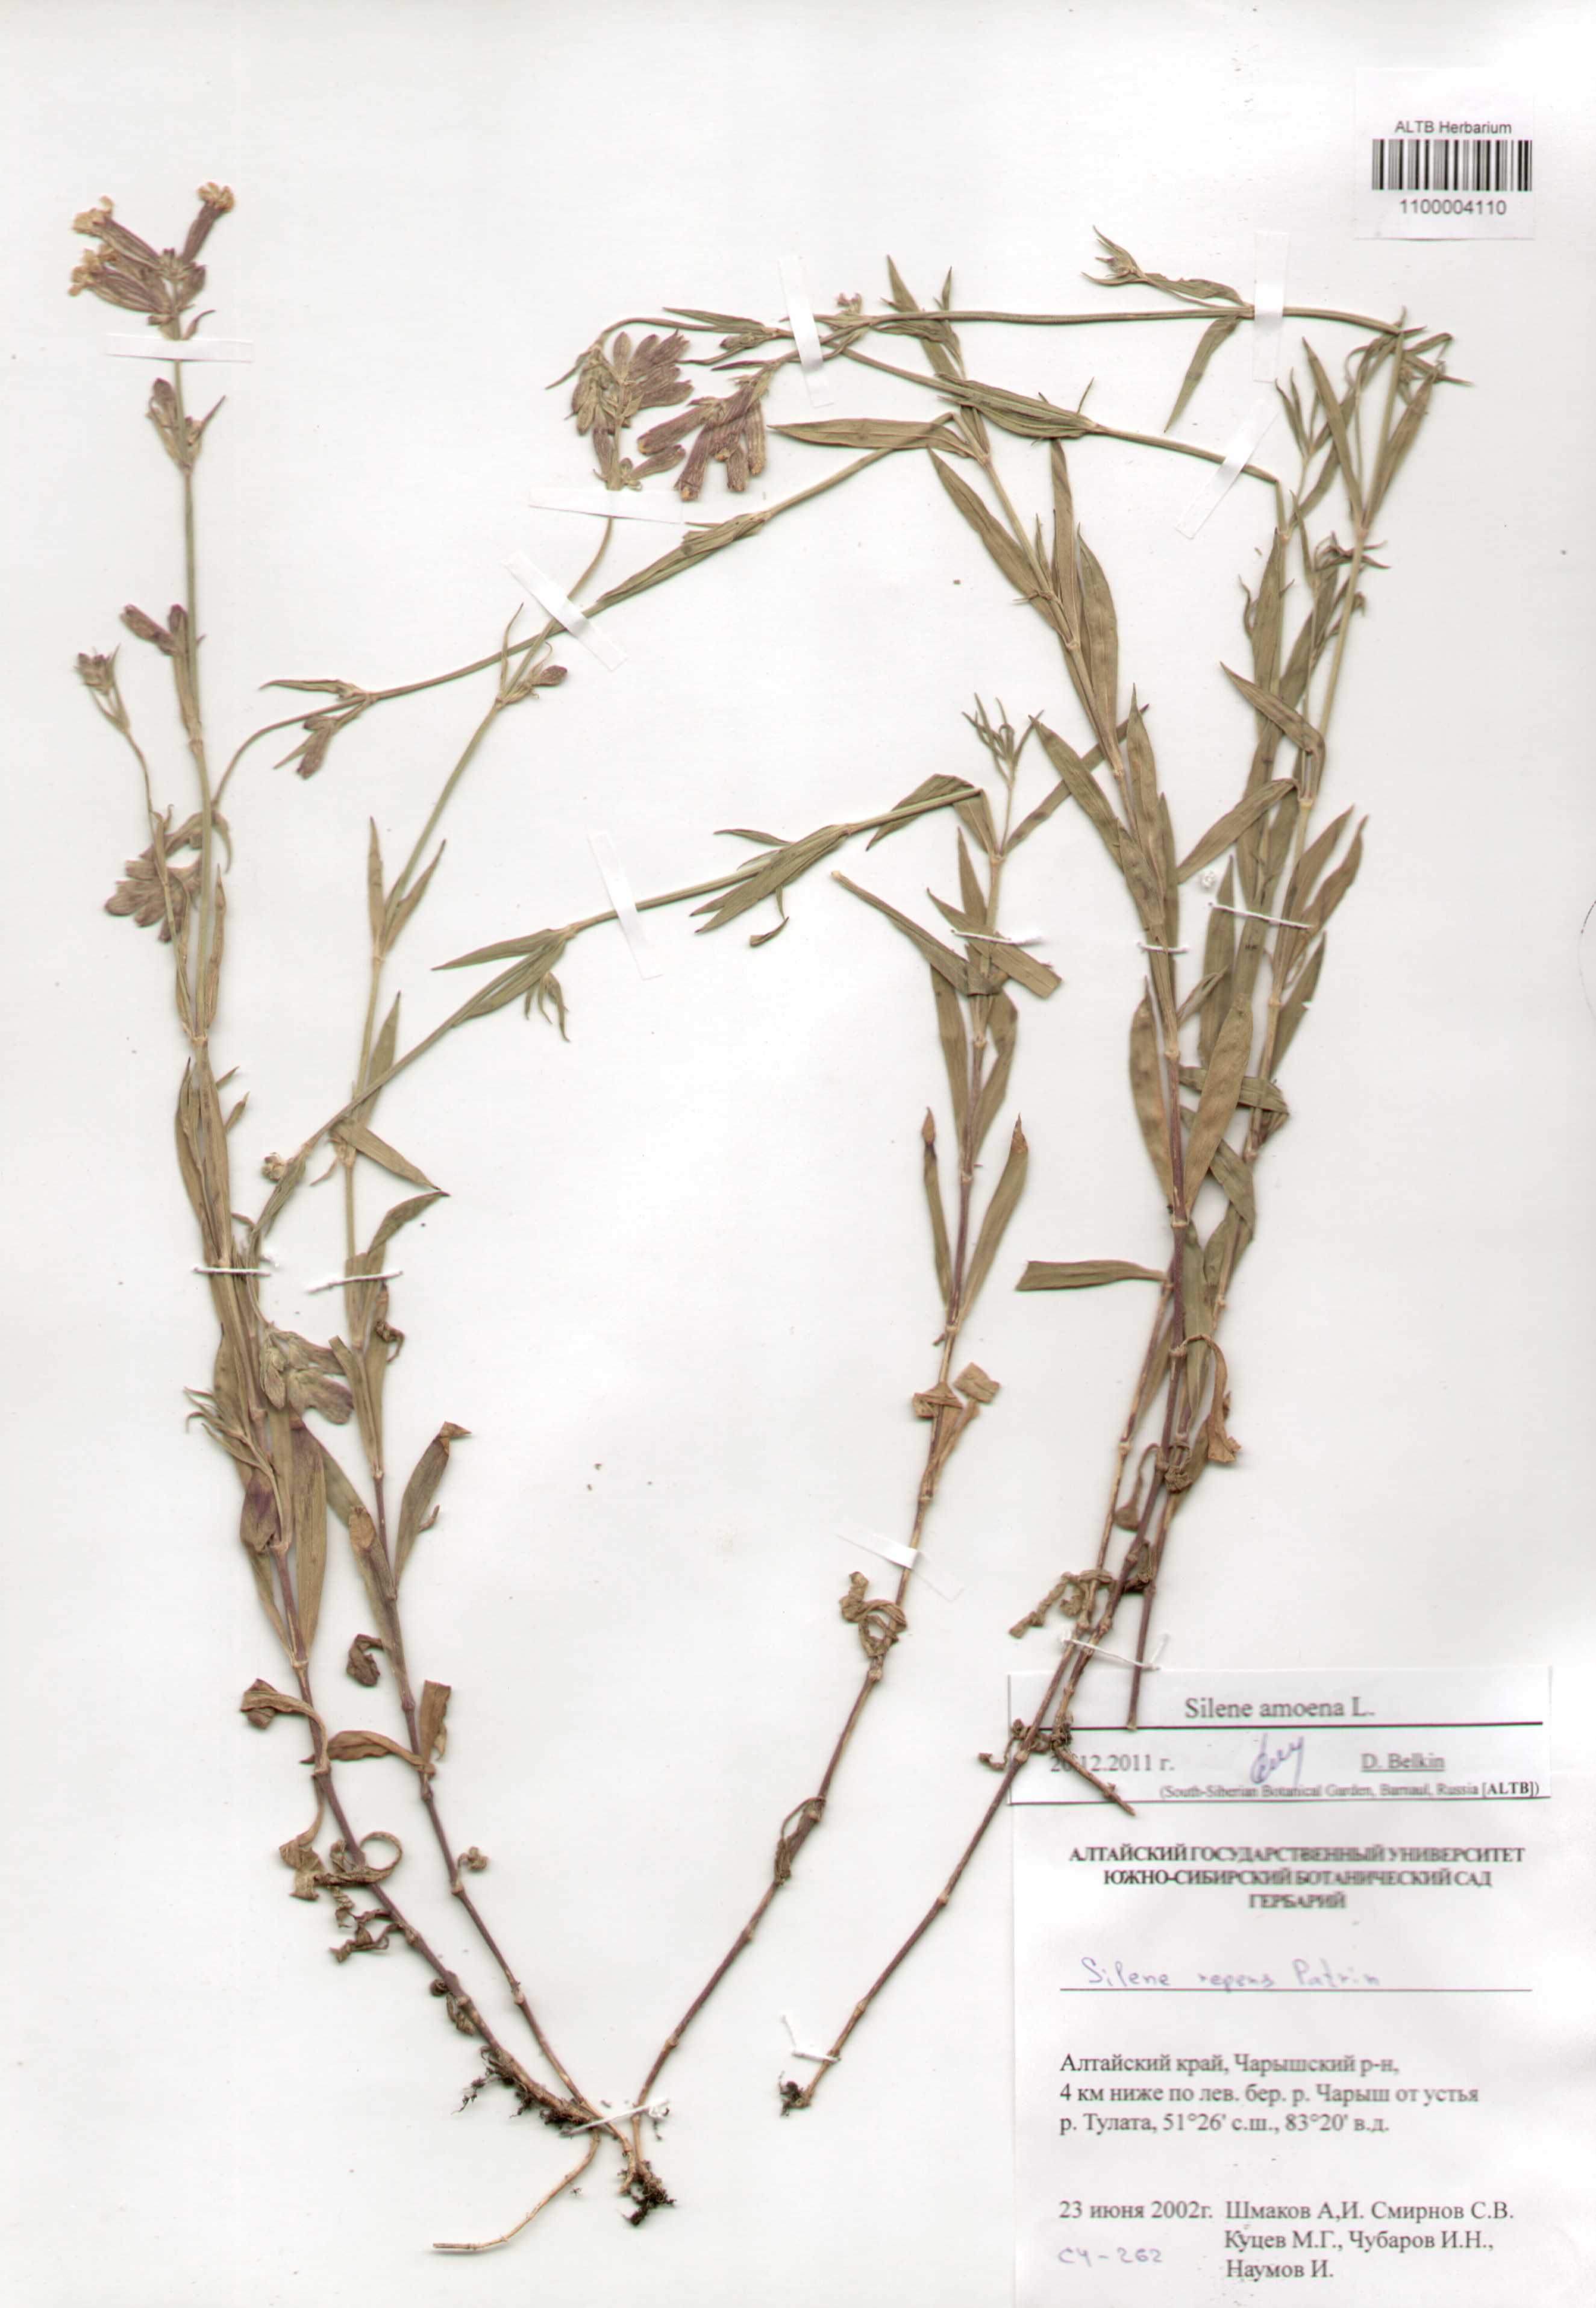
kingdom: Plantae
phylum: Tracheophyta
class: Magnoliopsida
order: Caryophyllales
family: Caryophyllaceae
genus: Silene
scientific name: Silene amoena
